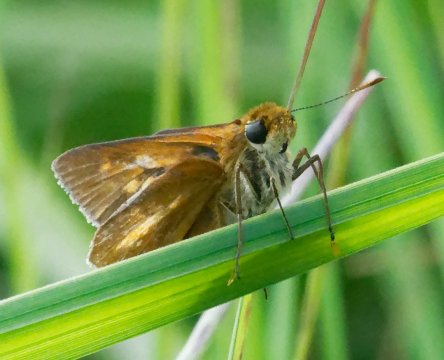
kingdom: Animalia
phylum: Arthropoda
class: Insecta
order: Lepidoptera
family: Hesperiidae
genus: Poanes
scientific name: Poanes viator
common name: Broad-winged Skipper
